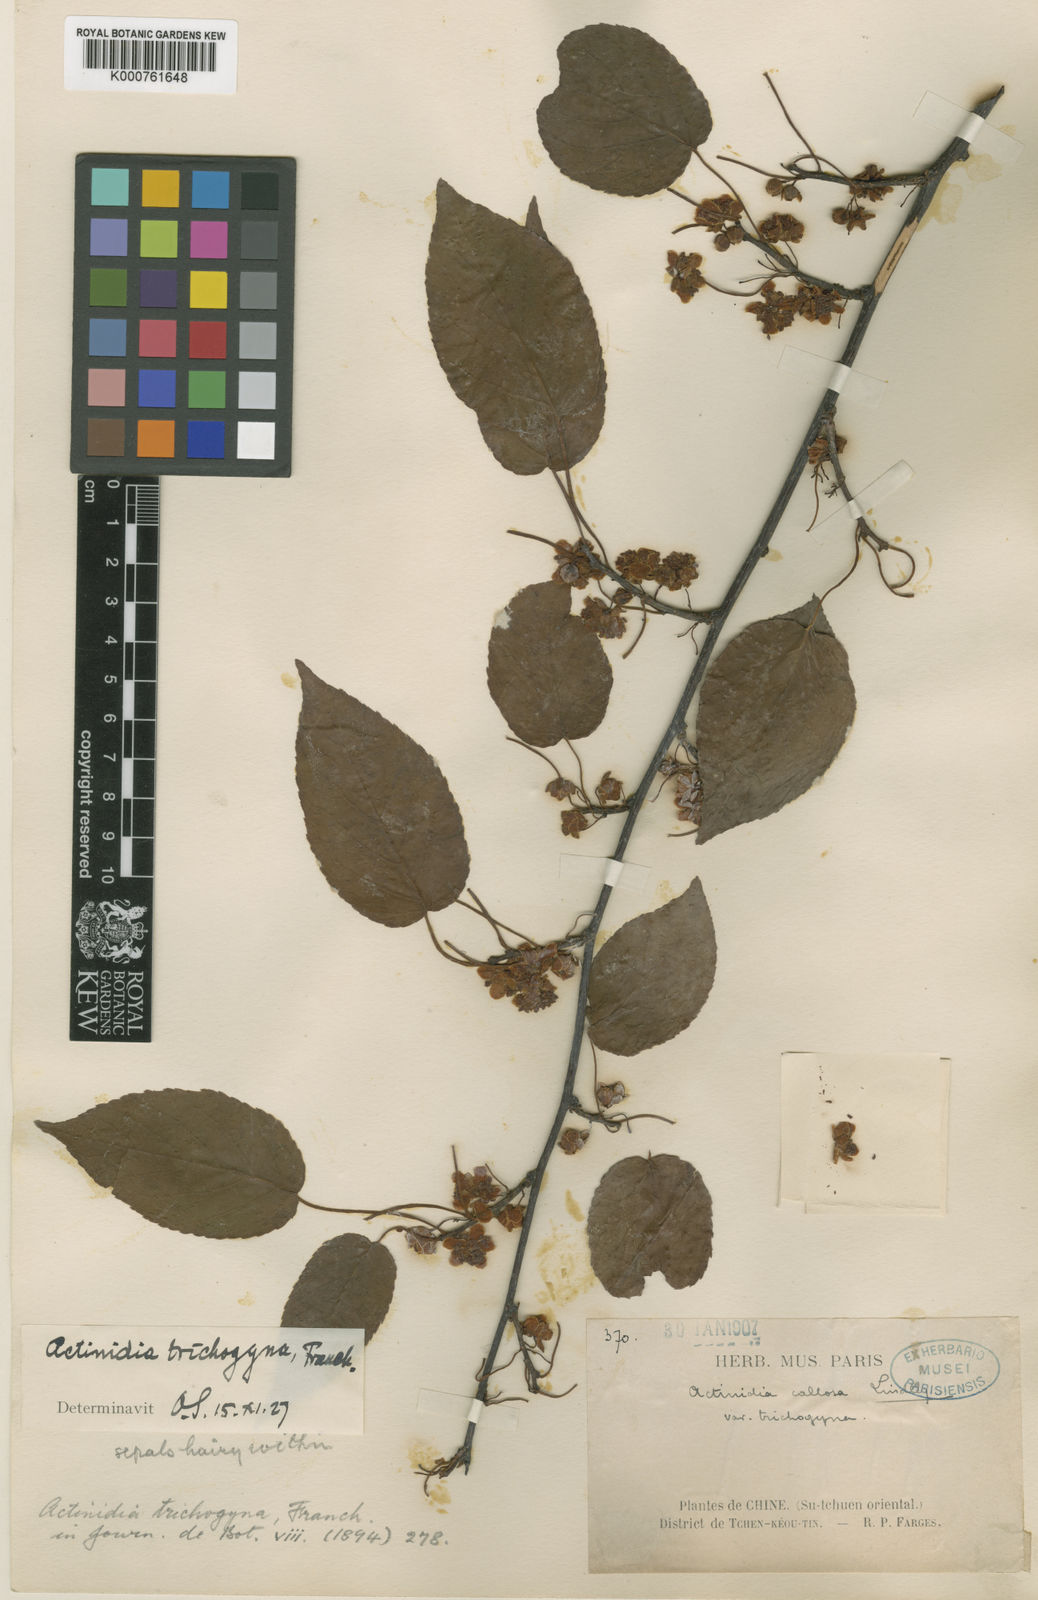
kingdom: Plantae
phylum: Tracheophyta
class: Magnoliopsida
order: Ericales
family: Actinidiaceae
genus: Actinidia
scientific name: Actinidia callosa
